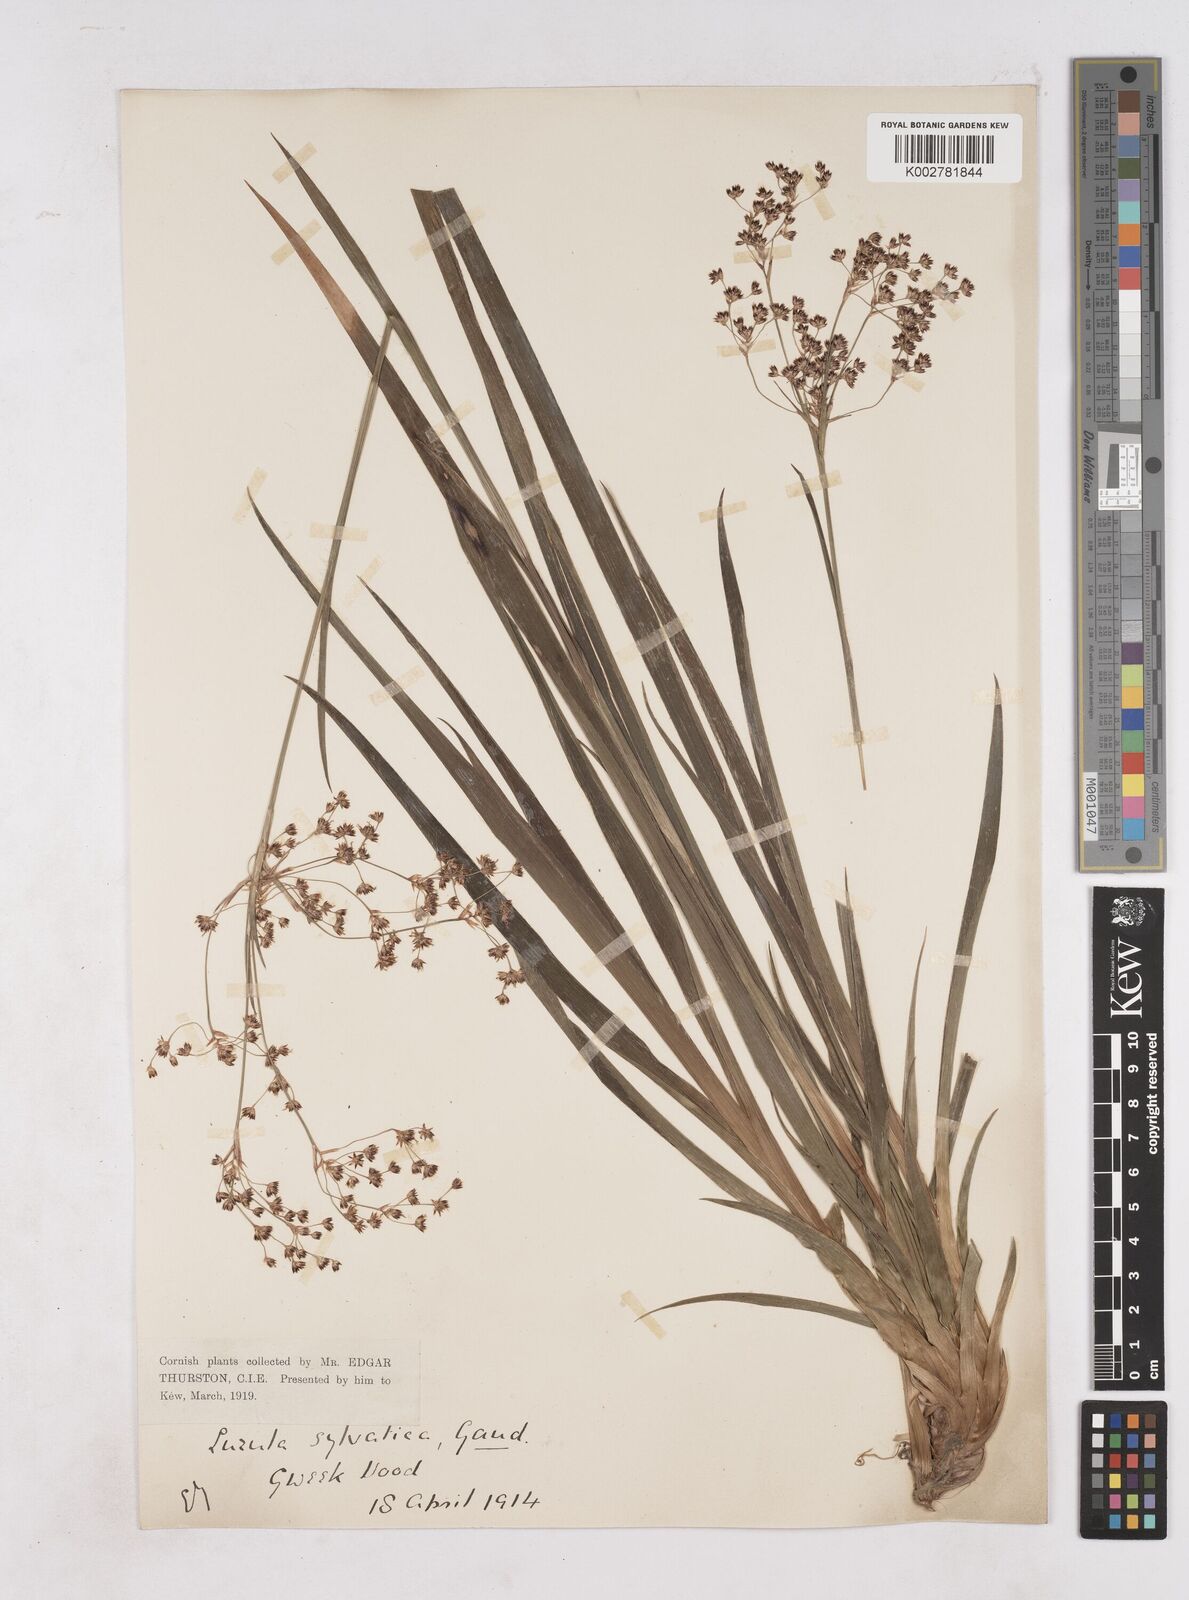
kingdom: Plantae
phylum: Tracheophyta
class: Liliopsida
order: Poales
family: Juncaceae
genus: Luzula
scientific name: Luzula sylvatica
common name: Great wood-rush
